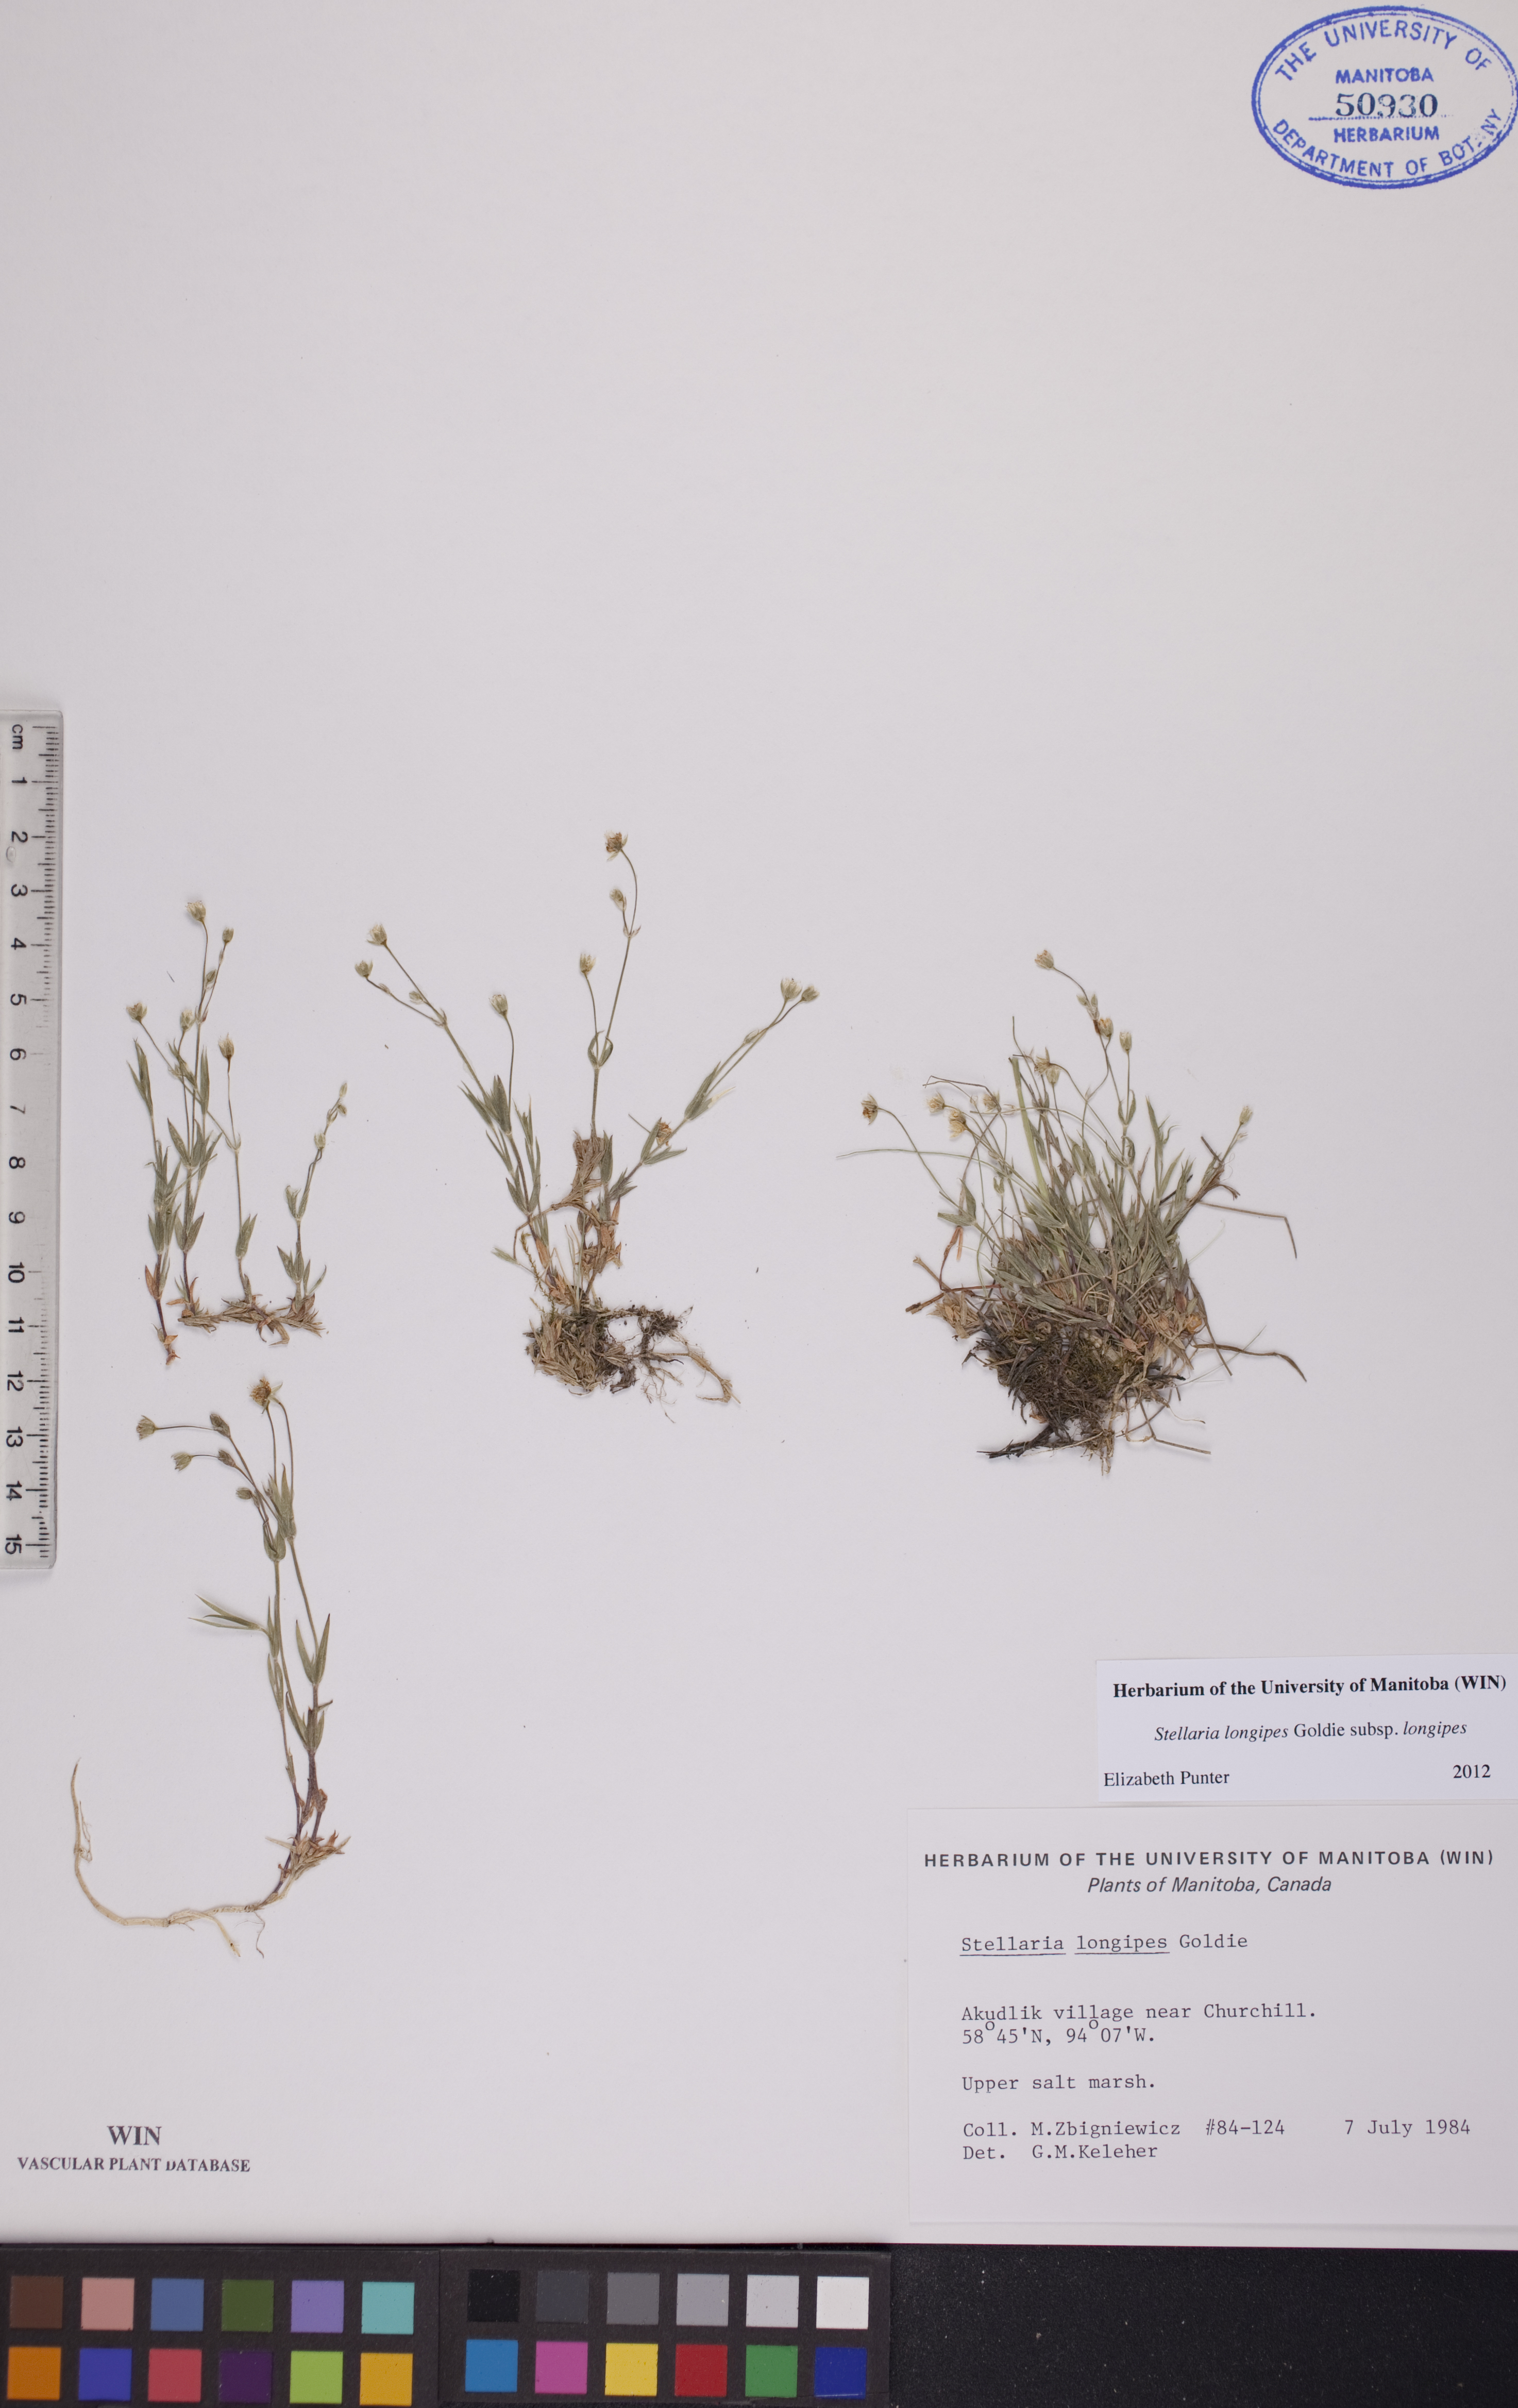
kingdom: Plantae
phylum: Tracheophyta
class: Magnoliopsida
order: Caryophyllales
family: Caryophyllaceae
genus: Stellaria
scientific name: Stellaria longipes
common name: Goldie's starwort
